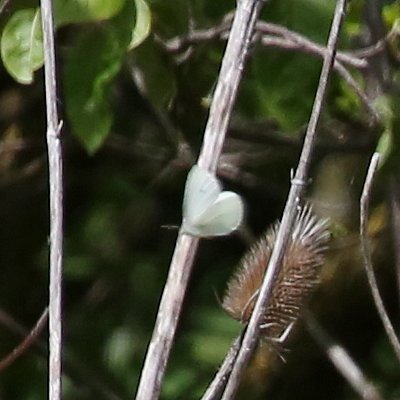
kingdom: Animalia
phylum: Arthropoda
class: Insecta
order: Lepidoptera
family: Pieridae
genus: Pieris
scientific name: Pieris rapae
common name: Cabbage White
